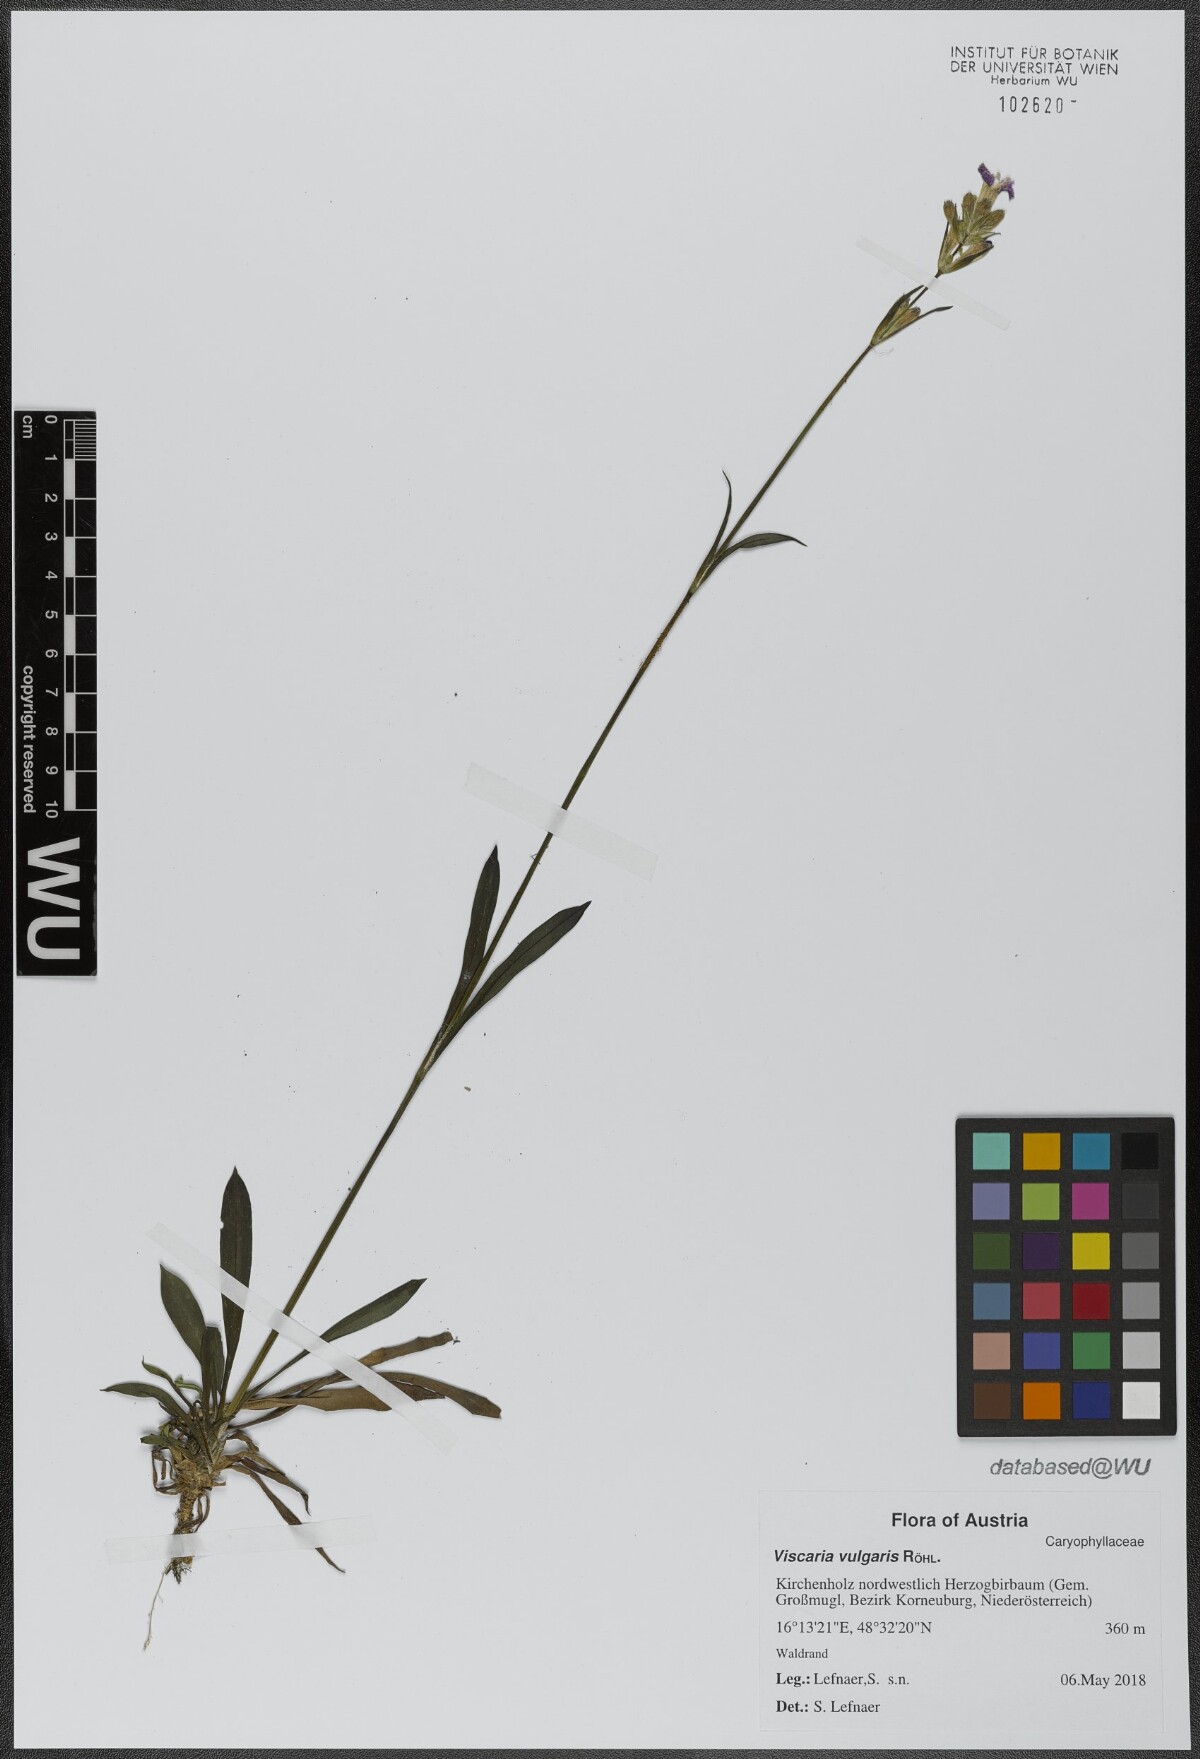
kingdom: Plantae
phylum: Tracheophyta
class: Magnoliopsida
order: Caryophyllales
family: Caryophyllaceae
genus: Viscaria
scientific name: Viscaria vulgaris
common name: Clammy campion
